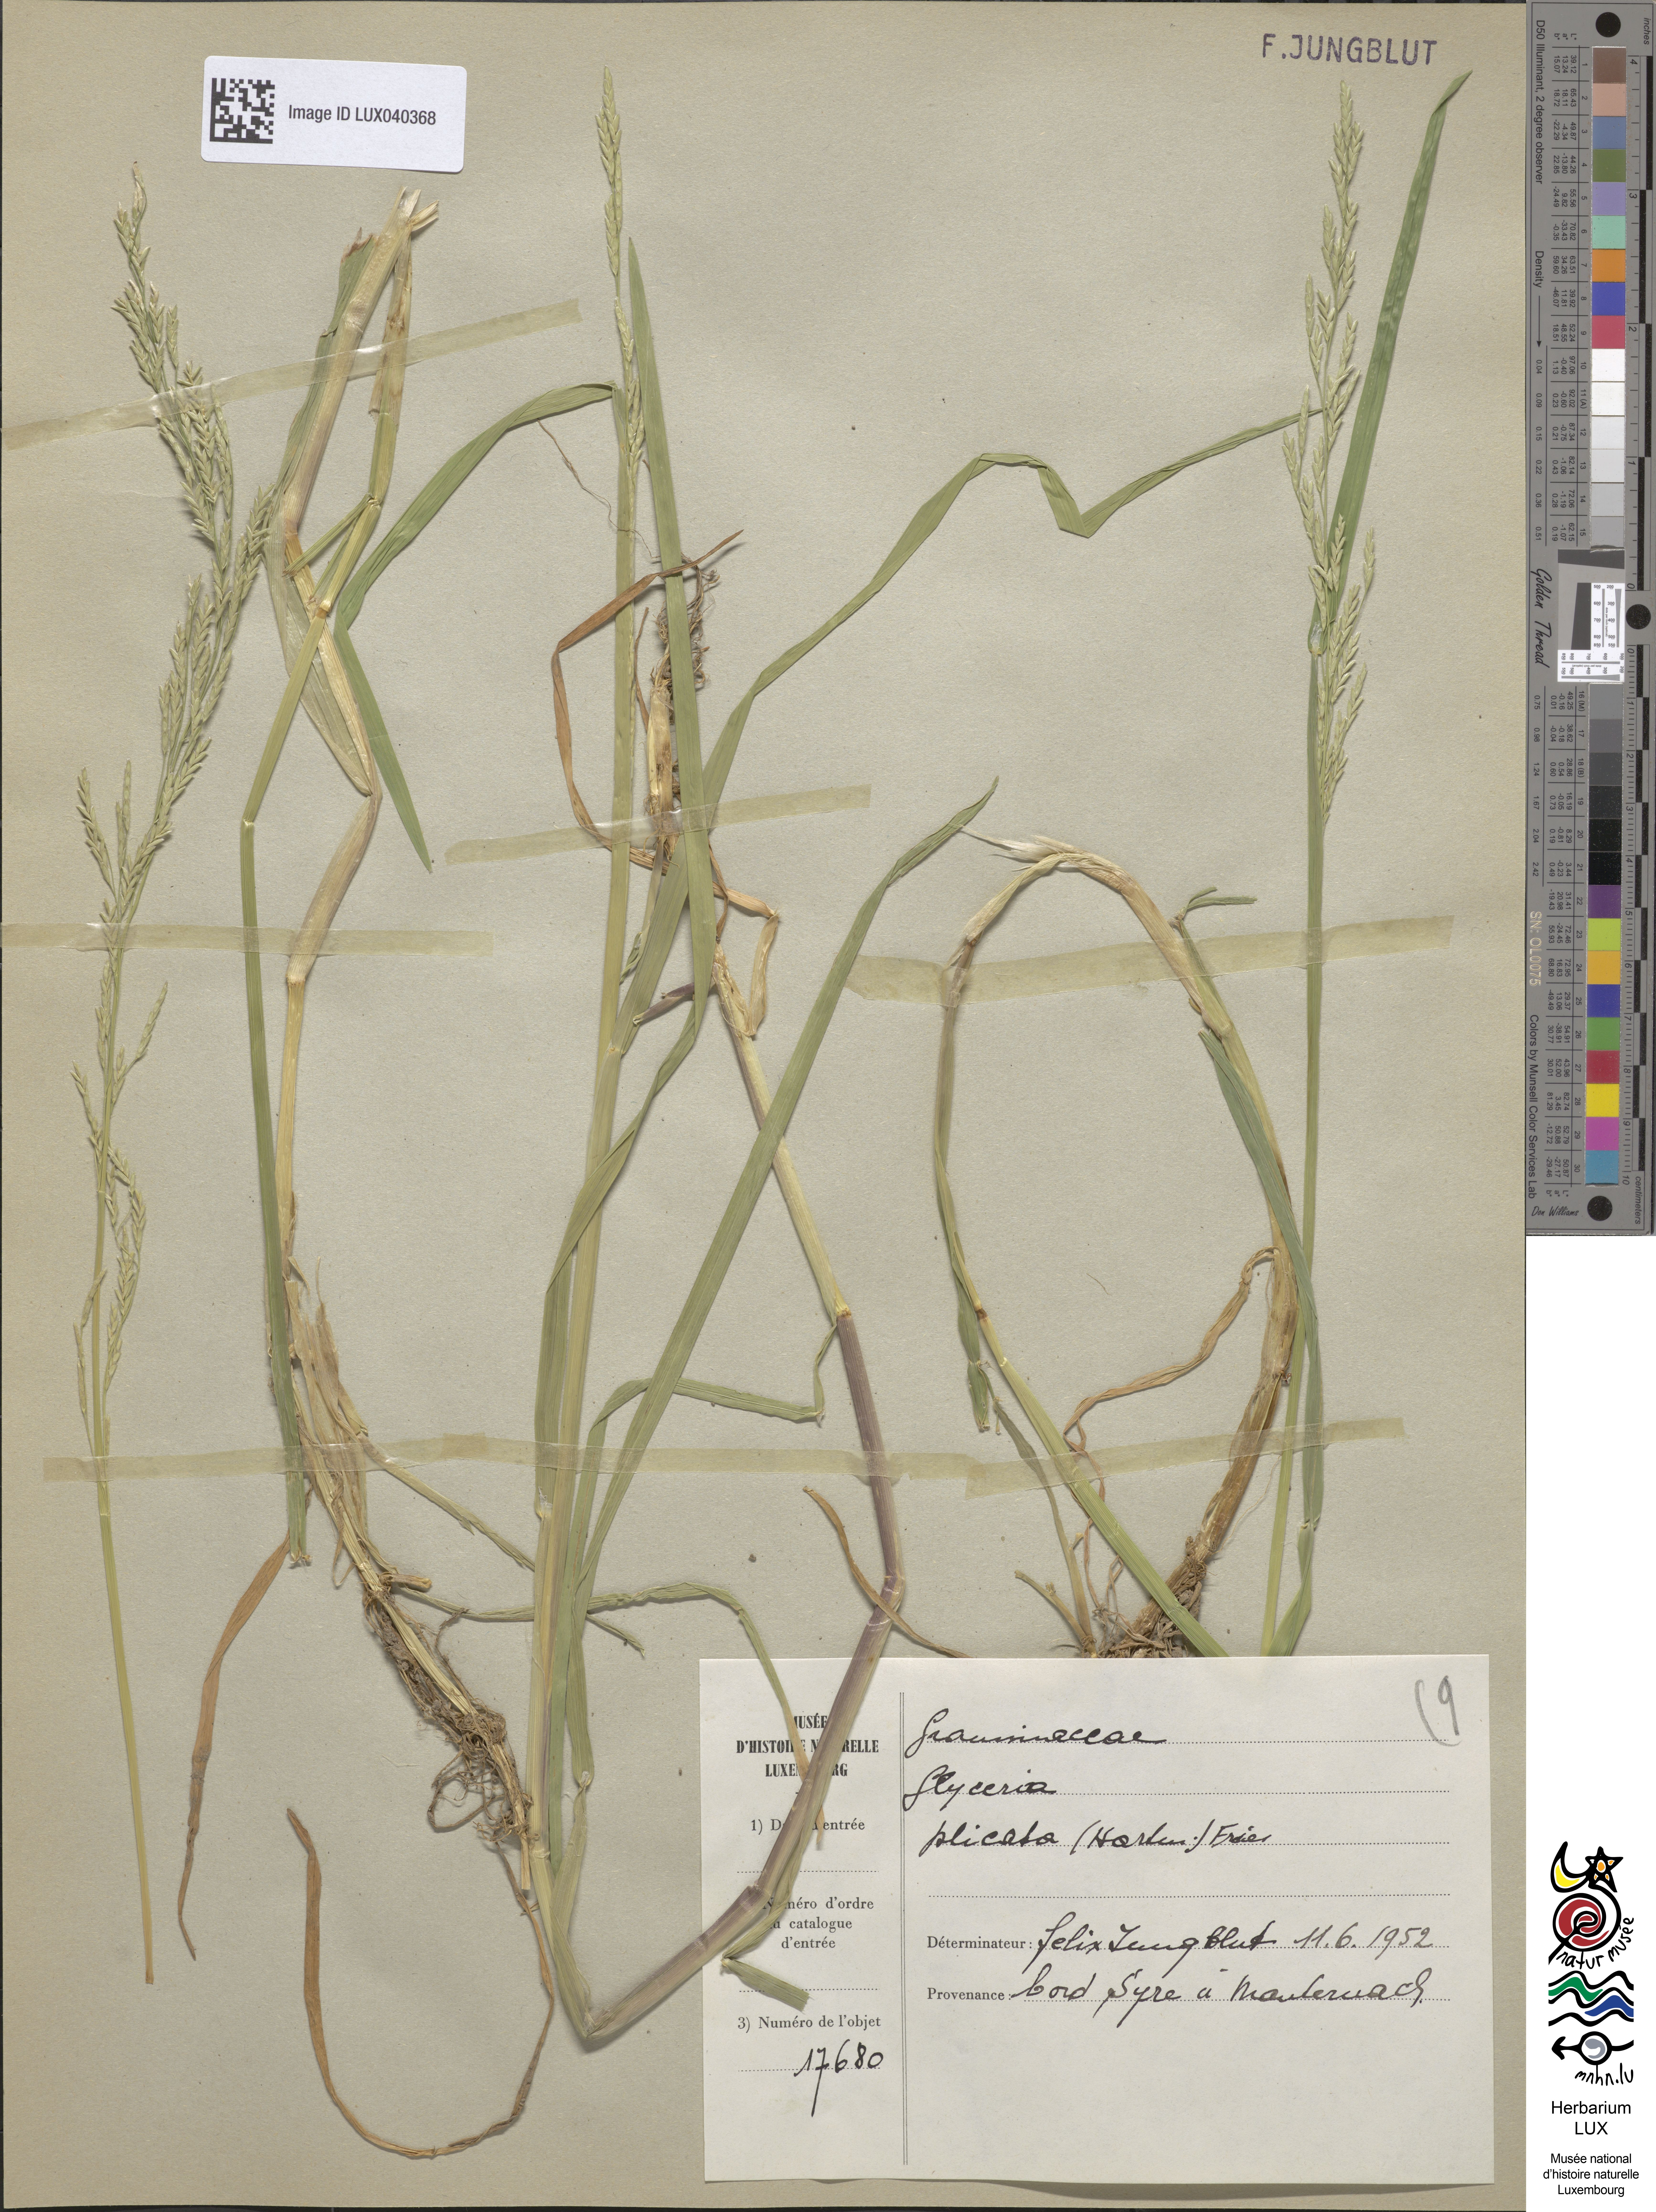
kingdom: Plantae
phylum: Tracheophyta
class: Liliopsida
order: Poales
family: Poaceae
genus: Glyceria
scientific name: Glyceria notata
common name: Plicate sweet-grass
